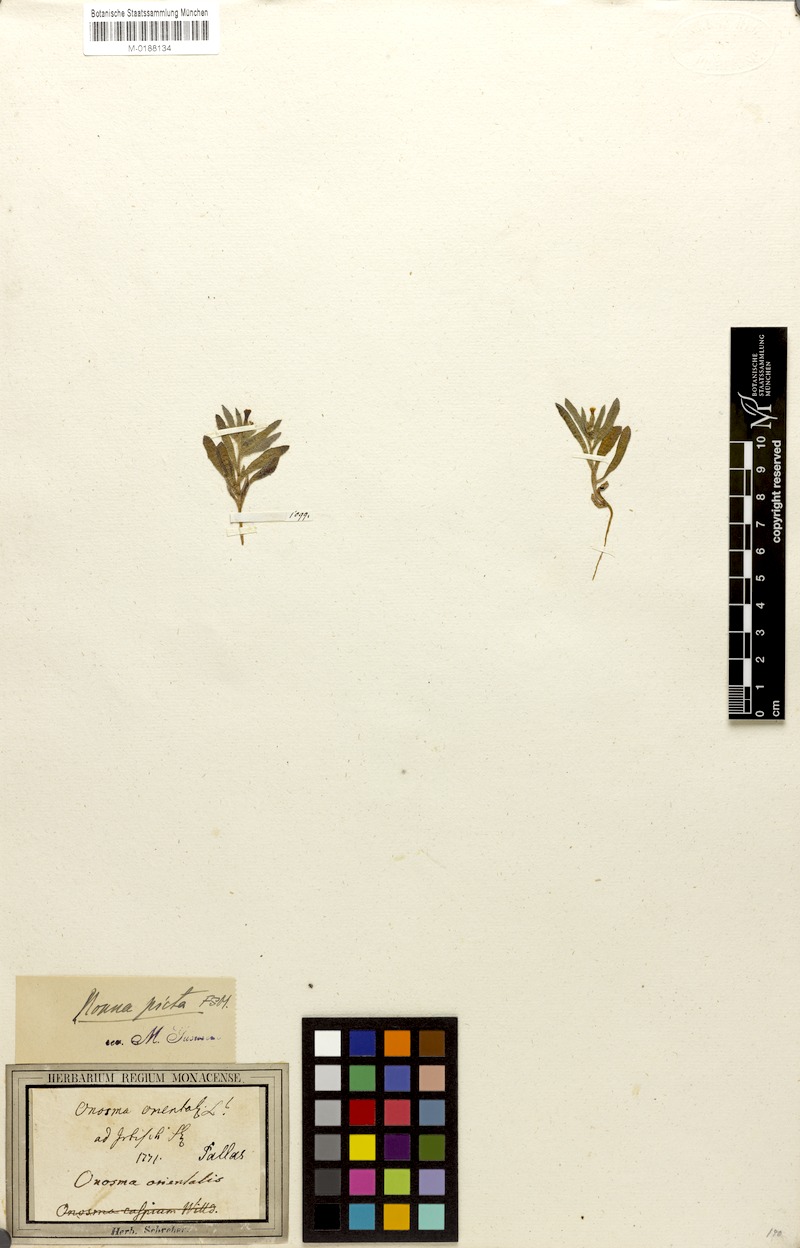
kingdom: Plantae
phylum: Tracheophyta
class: Magnoliopsida
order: Boraginales
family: Boraginaceae
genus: Nonea
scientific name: Nonea caspica
